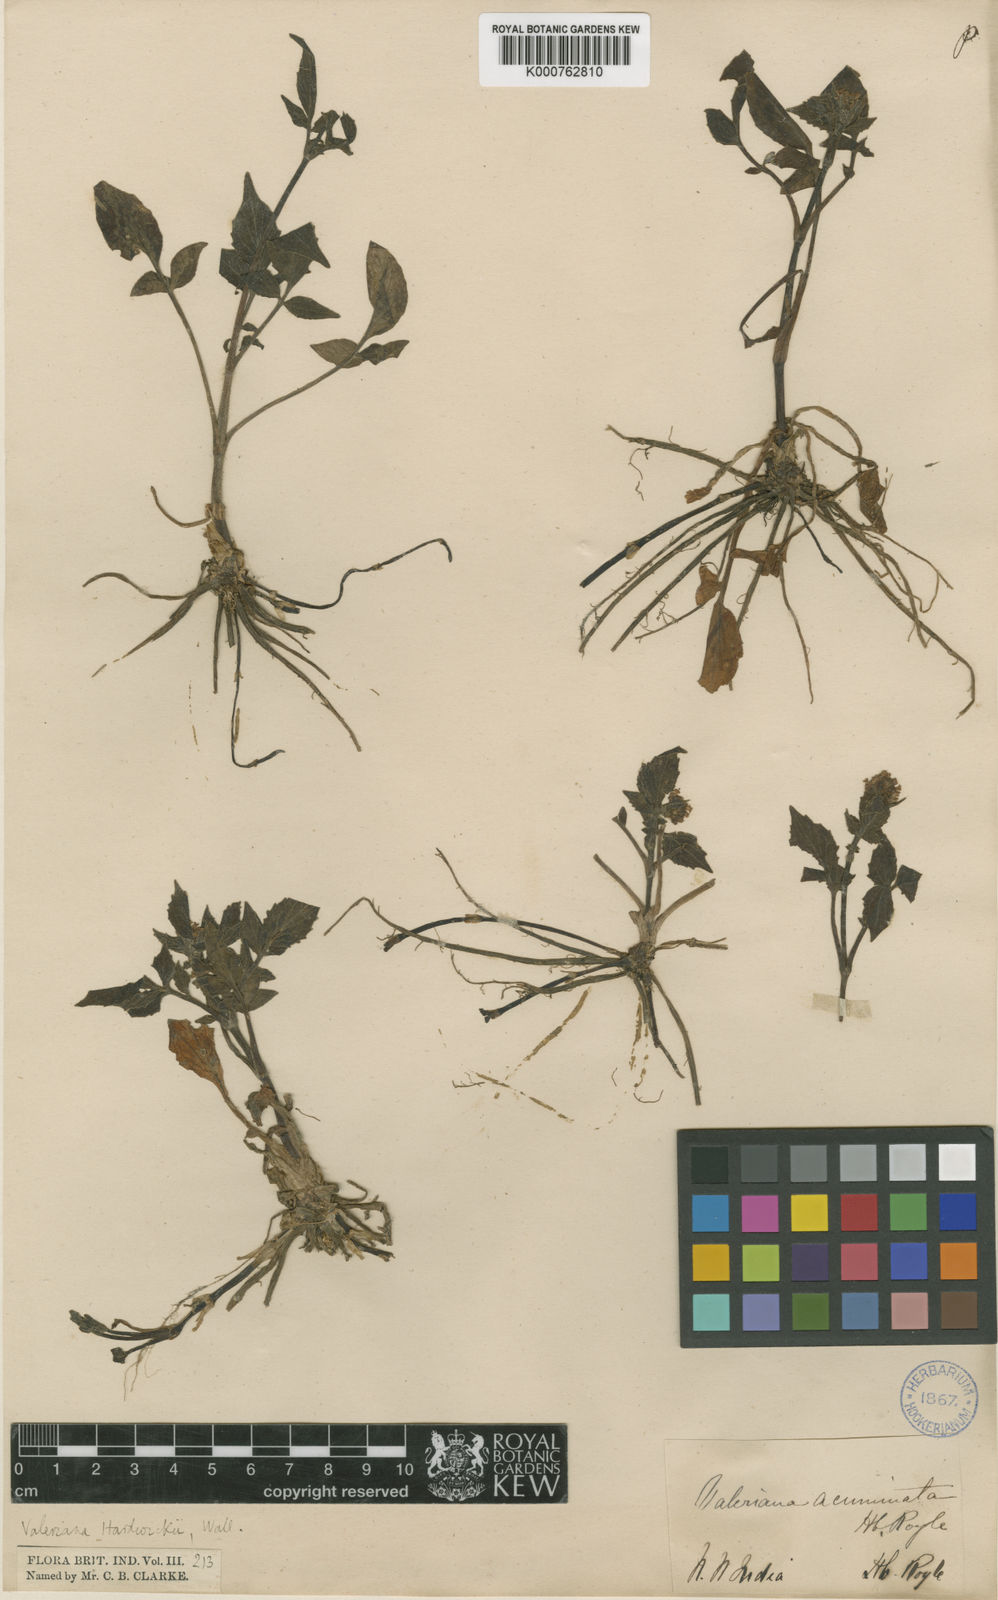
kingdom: Plantae
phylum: Tracheophyta
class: Magnoliopsida
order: Dipsacales
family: Caprifoliaceae
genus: Valeriana
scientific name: Valeriana hardwickei
